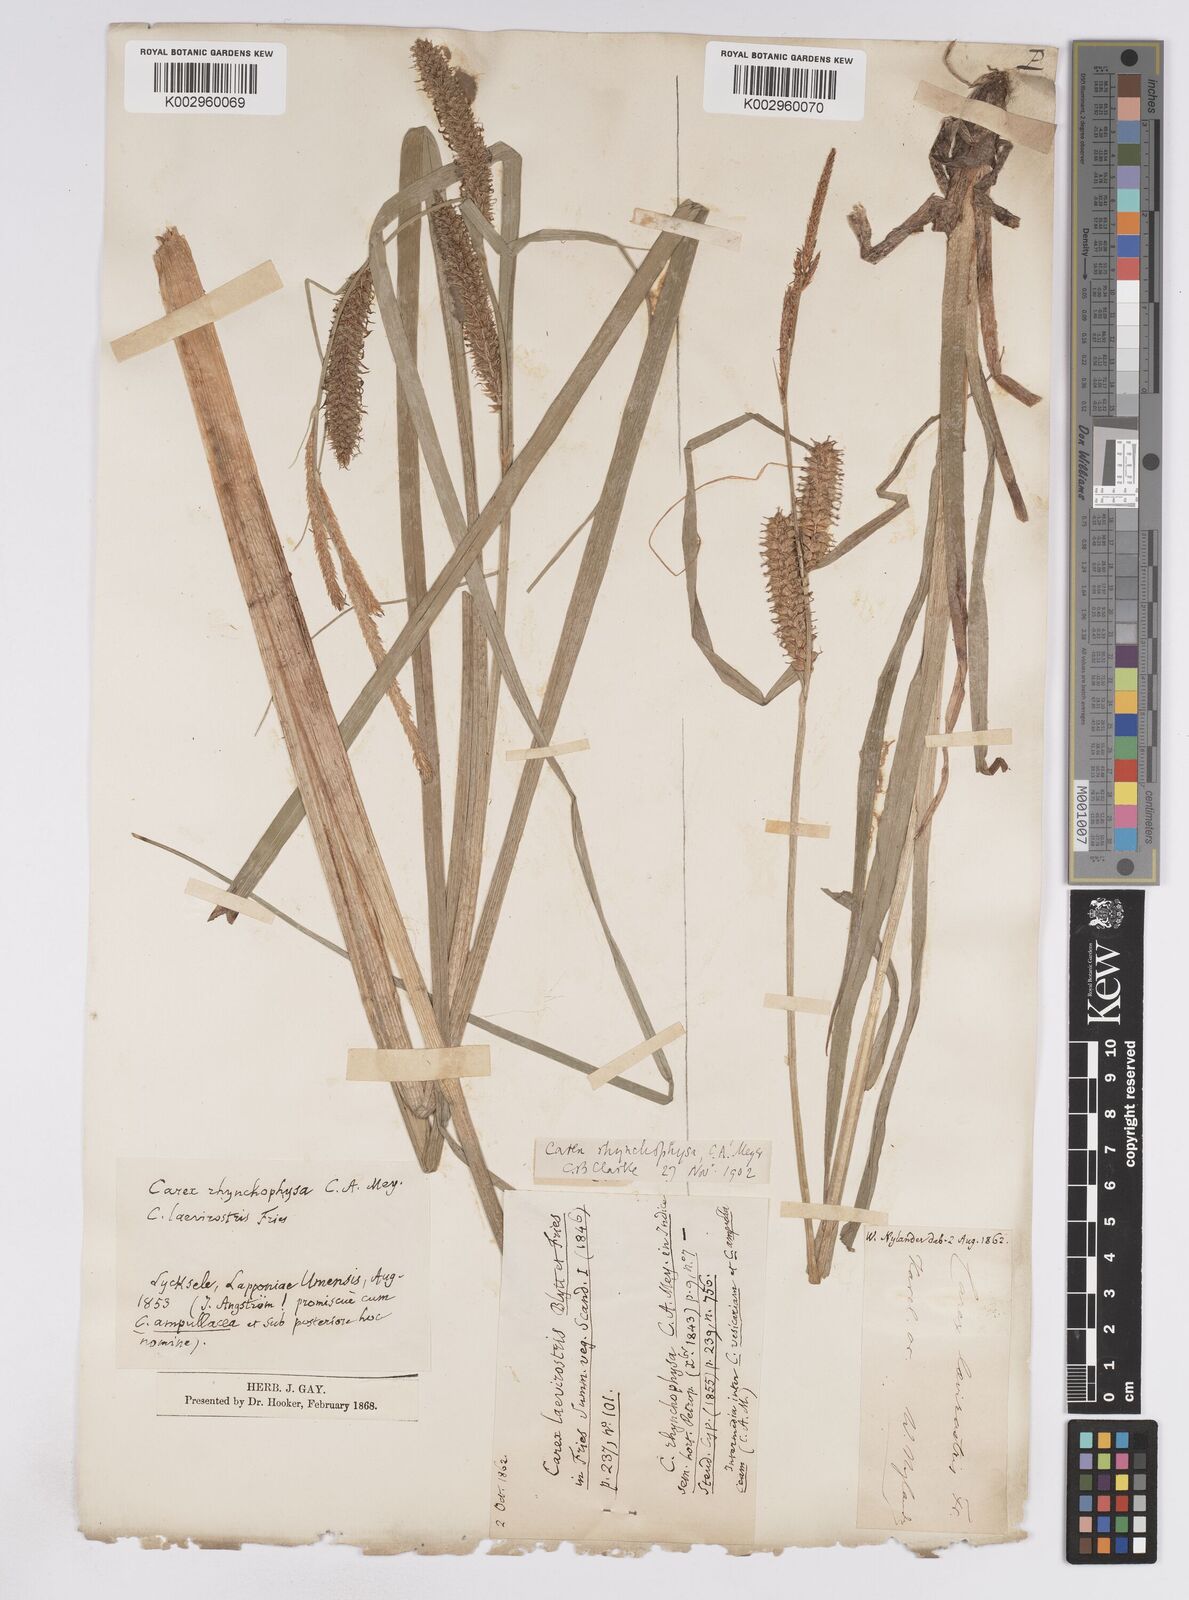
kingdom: Plantae
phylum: Tracheophyta
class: Liliopsida
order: Poales
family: Cyperaceae
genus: Carex
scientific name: Carex utriculata
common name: Beaked sedge
